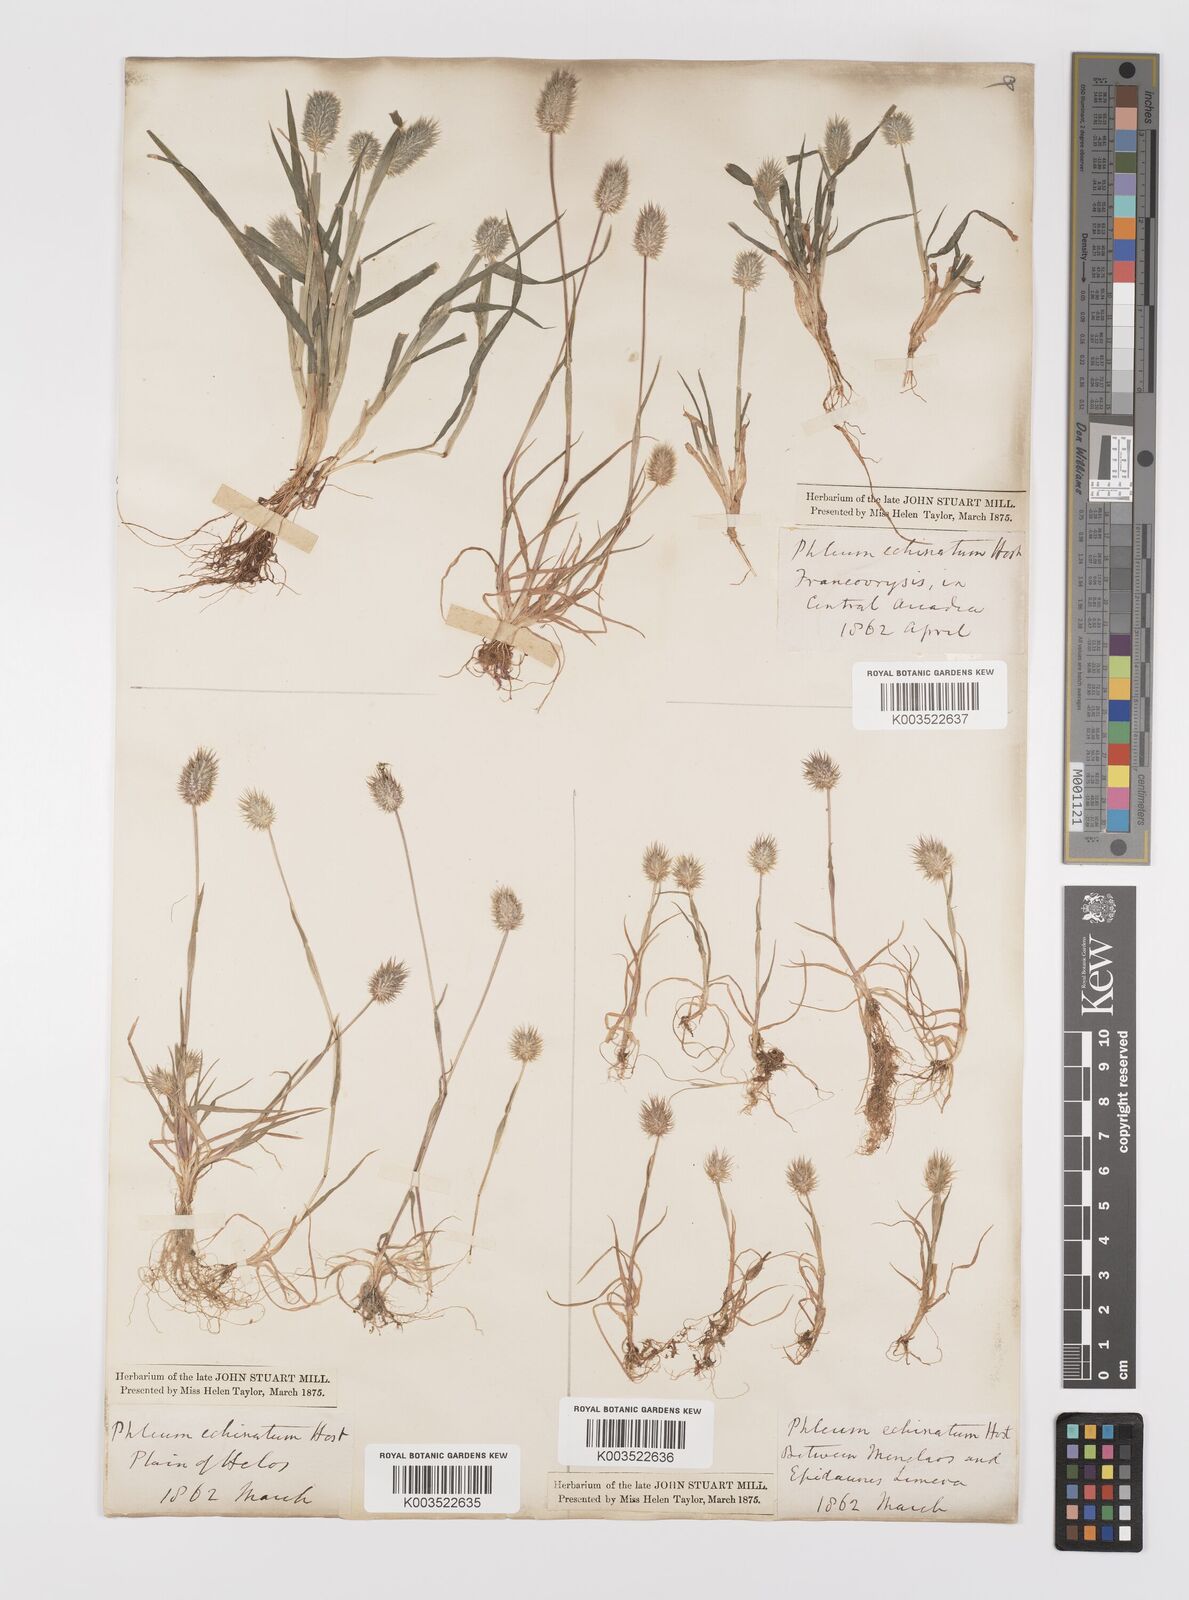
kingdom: Plantae
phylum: Tracheophyta
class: Liliopsida
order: Poales
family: Poaceae
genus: Phleum
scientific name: Phleum echinatum
